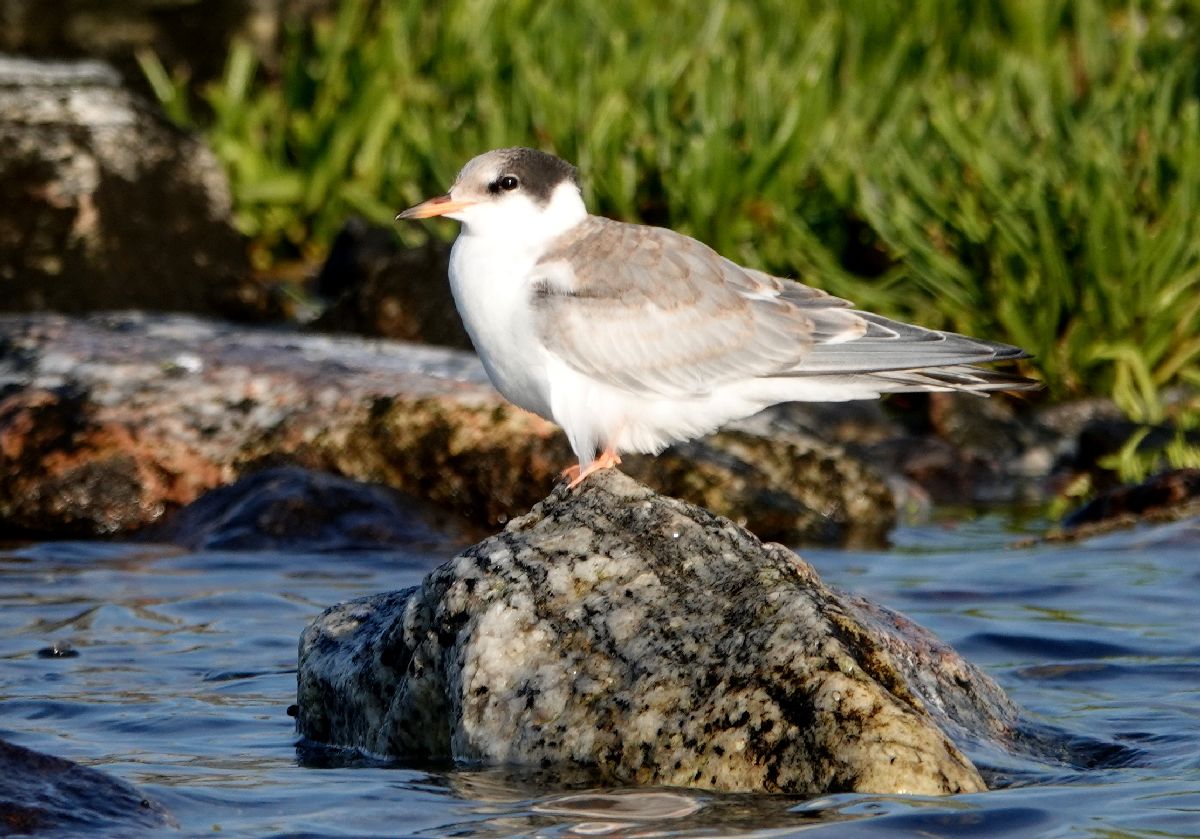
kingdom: Animalia
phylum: Chordata
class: Aves
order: Charadriiformes
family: Laridae
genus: Sterna
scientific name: Sterna hirundo
